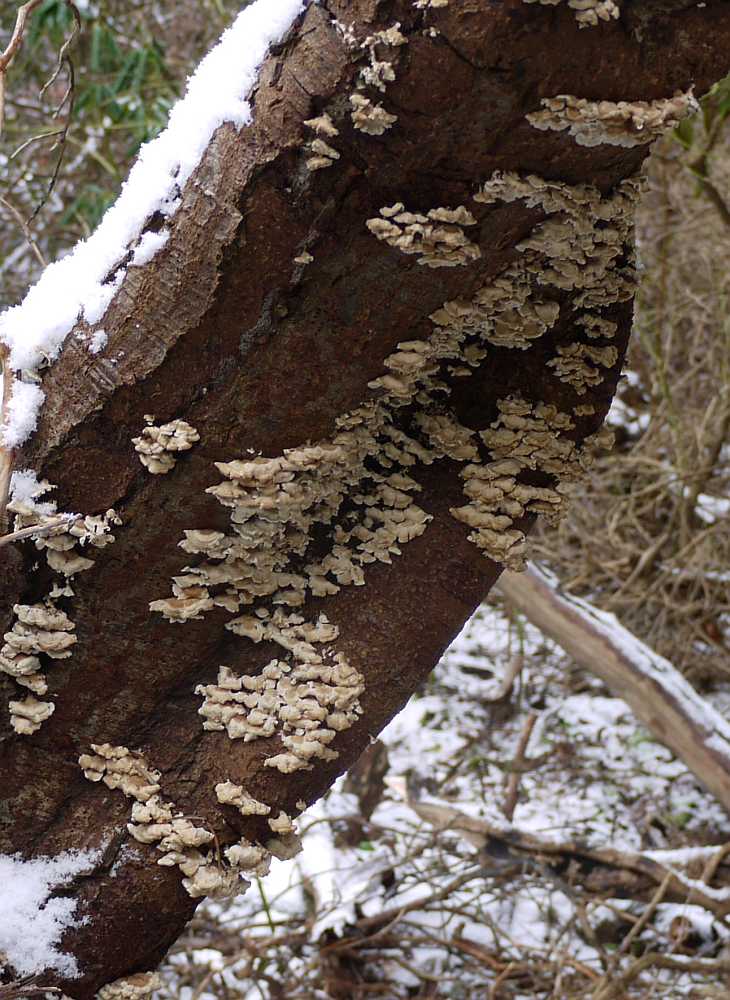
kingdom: Fungi
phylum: Basidiomycota
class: Agaricomycetes
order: Amylocorticiales
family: Amylocorticiaceae
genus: Plicaturopsis
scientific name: Plicaturopsis crispa
